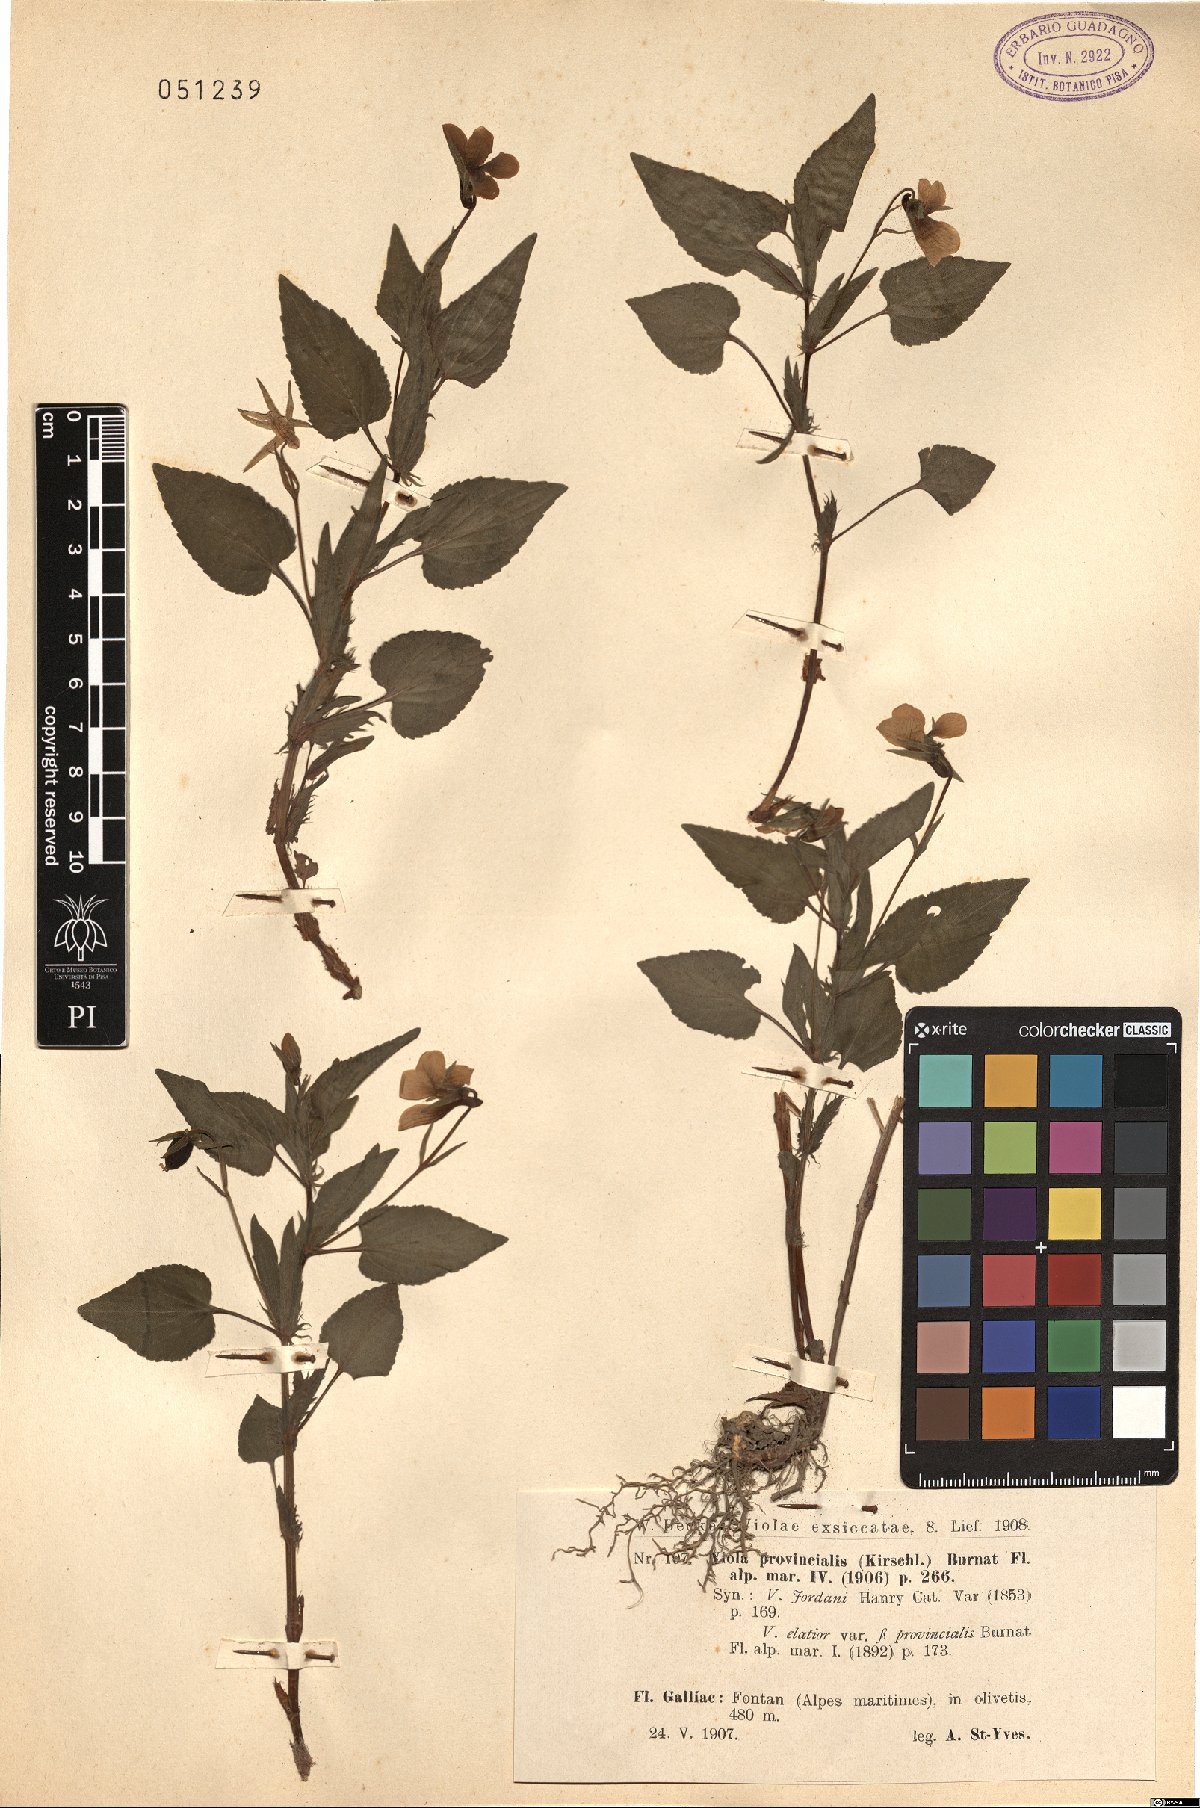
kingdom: Plantae
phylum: Tracheophyta
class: Magnoliopsida
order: Malpighiales
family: Violaceae
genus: Viola
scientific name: Viola jordanii
